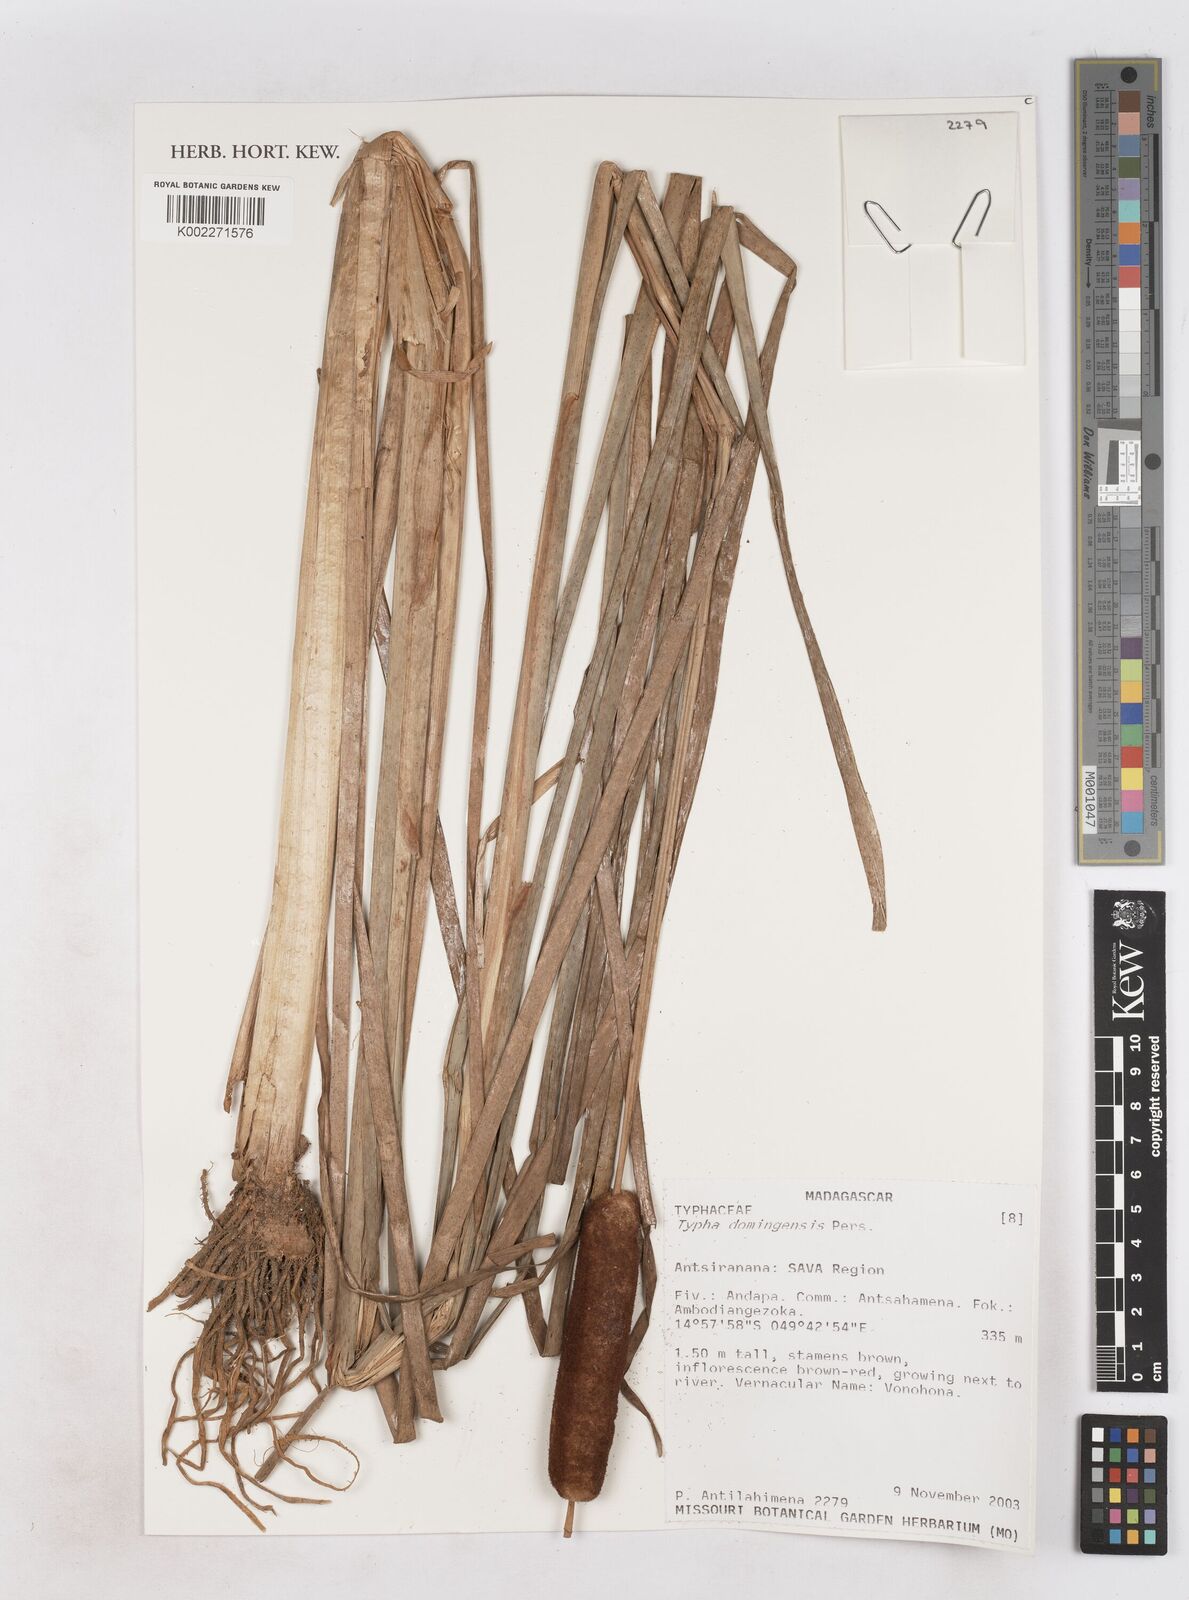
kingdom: Plantae
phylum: Tracheophyta
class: Liliopsida
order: Poales
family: Typhaceae
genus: Typha
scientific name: Typha domingensis
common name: Southern cattail
